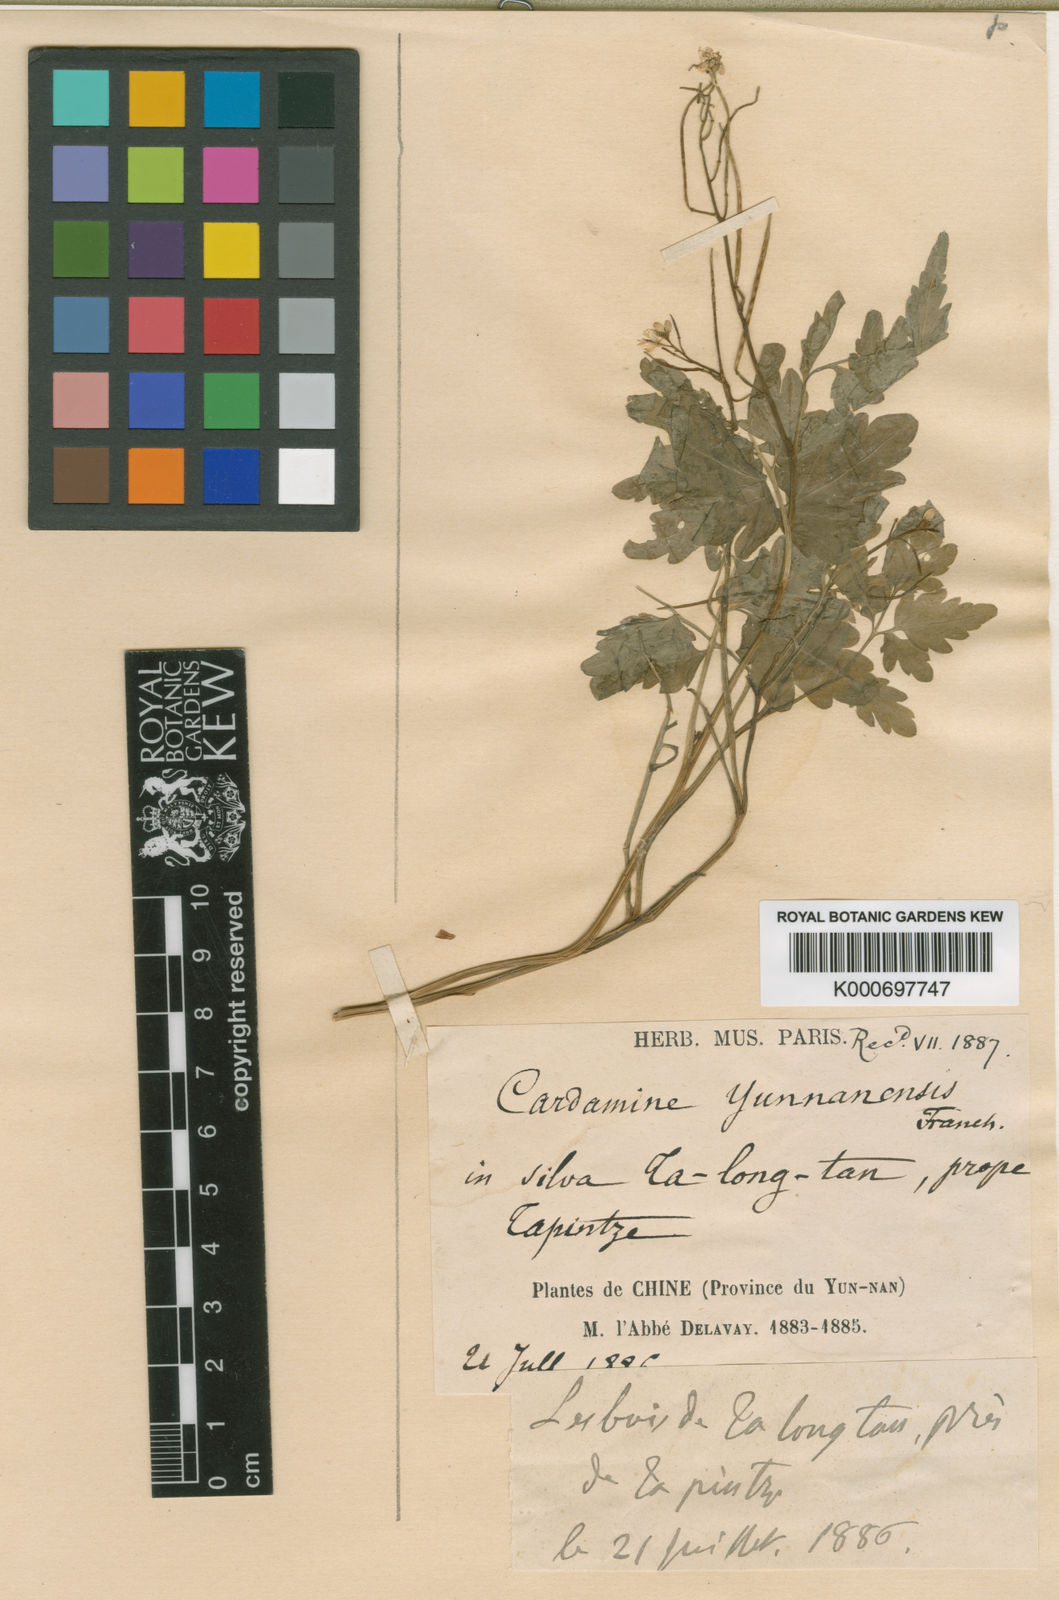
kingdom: Plantae
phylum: Tracheophyta
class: Magnoliopsida
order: Brassicales
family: Brassicaceae
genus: Cardamine
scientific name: Cardamine yunnanensis
